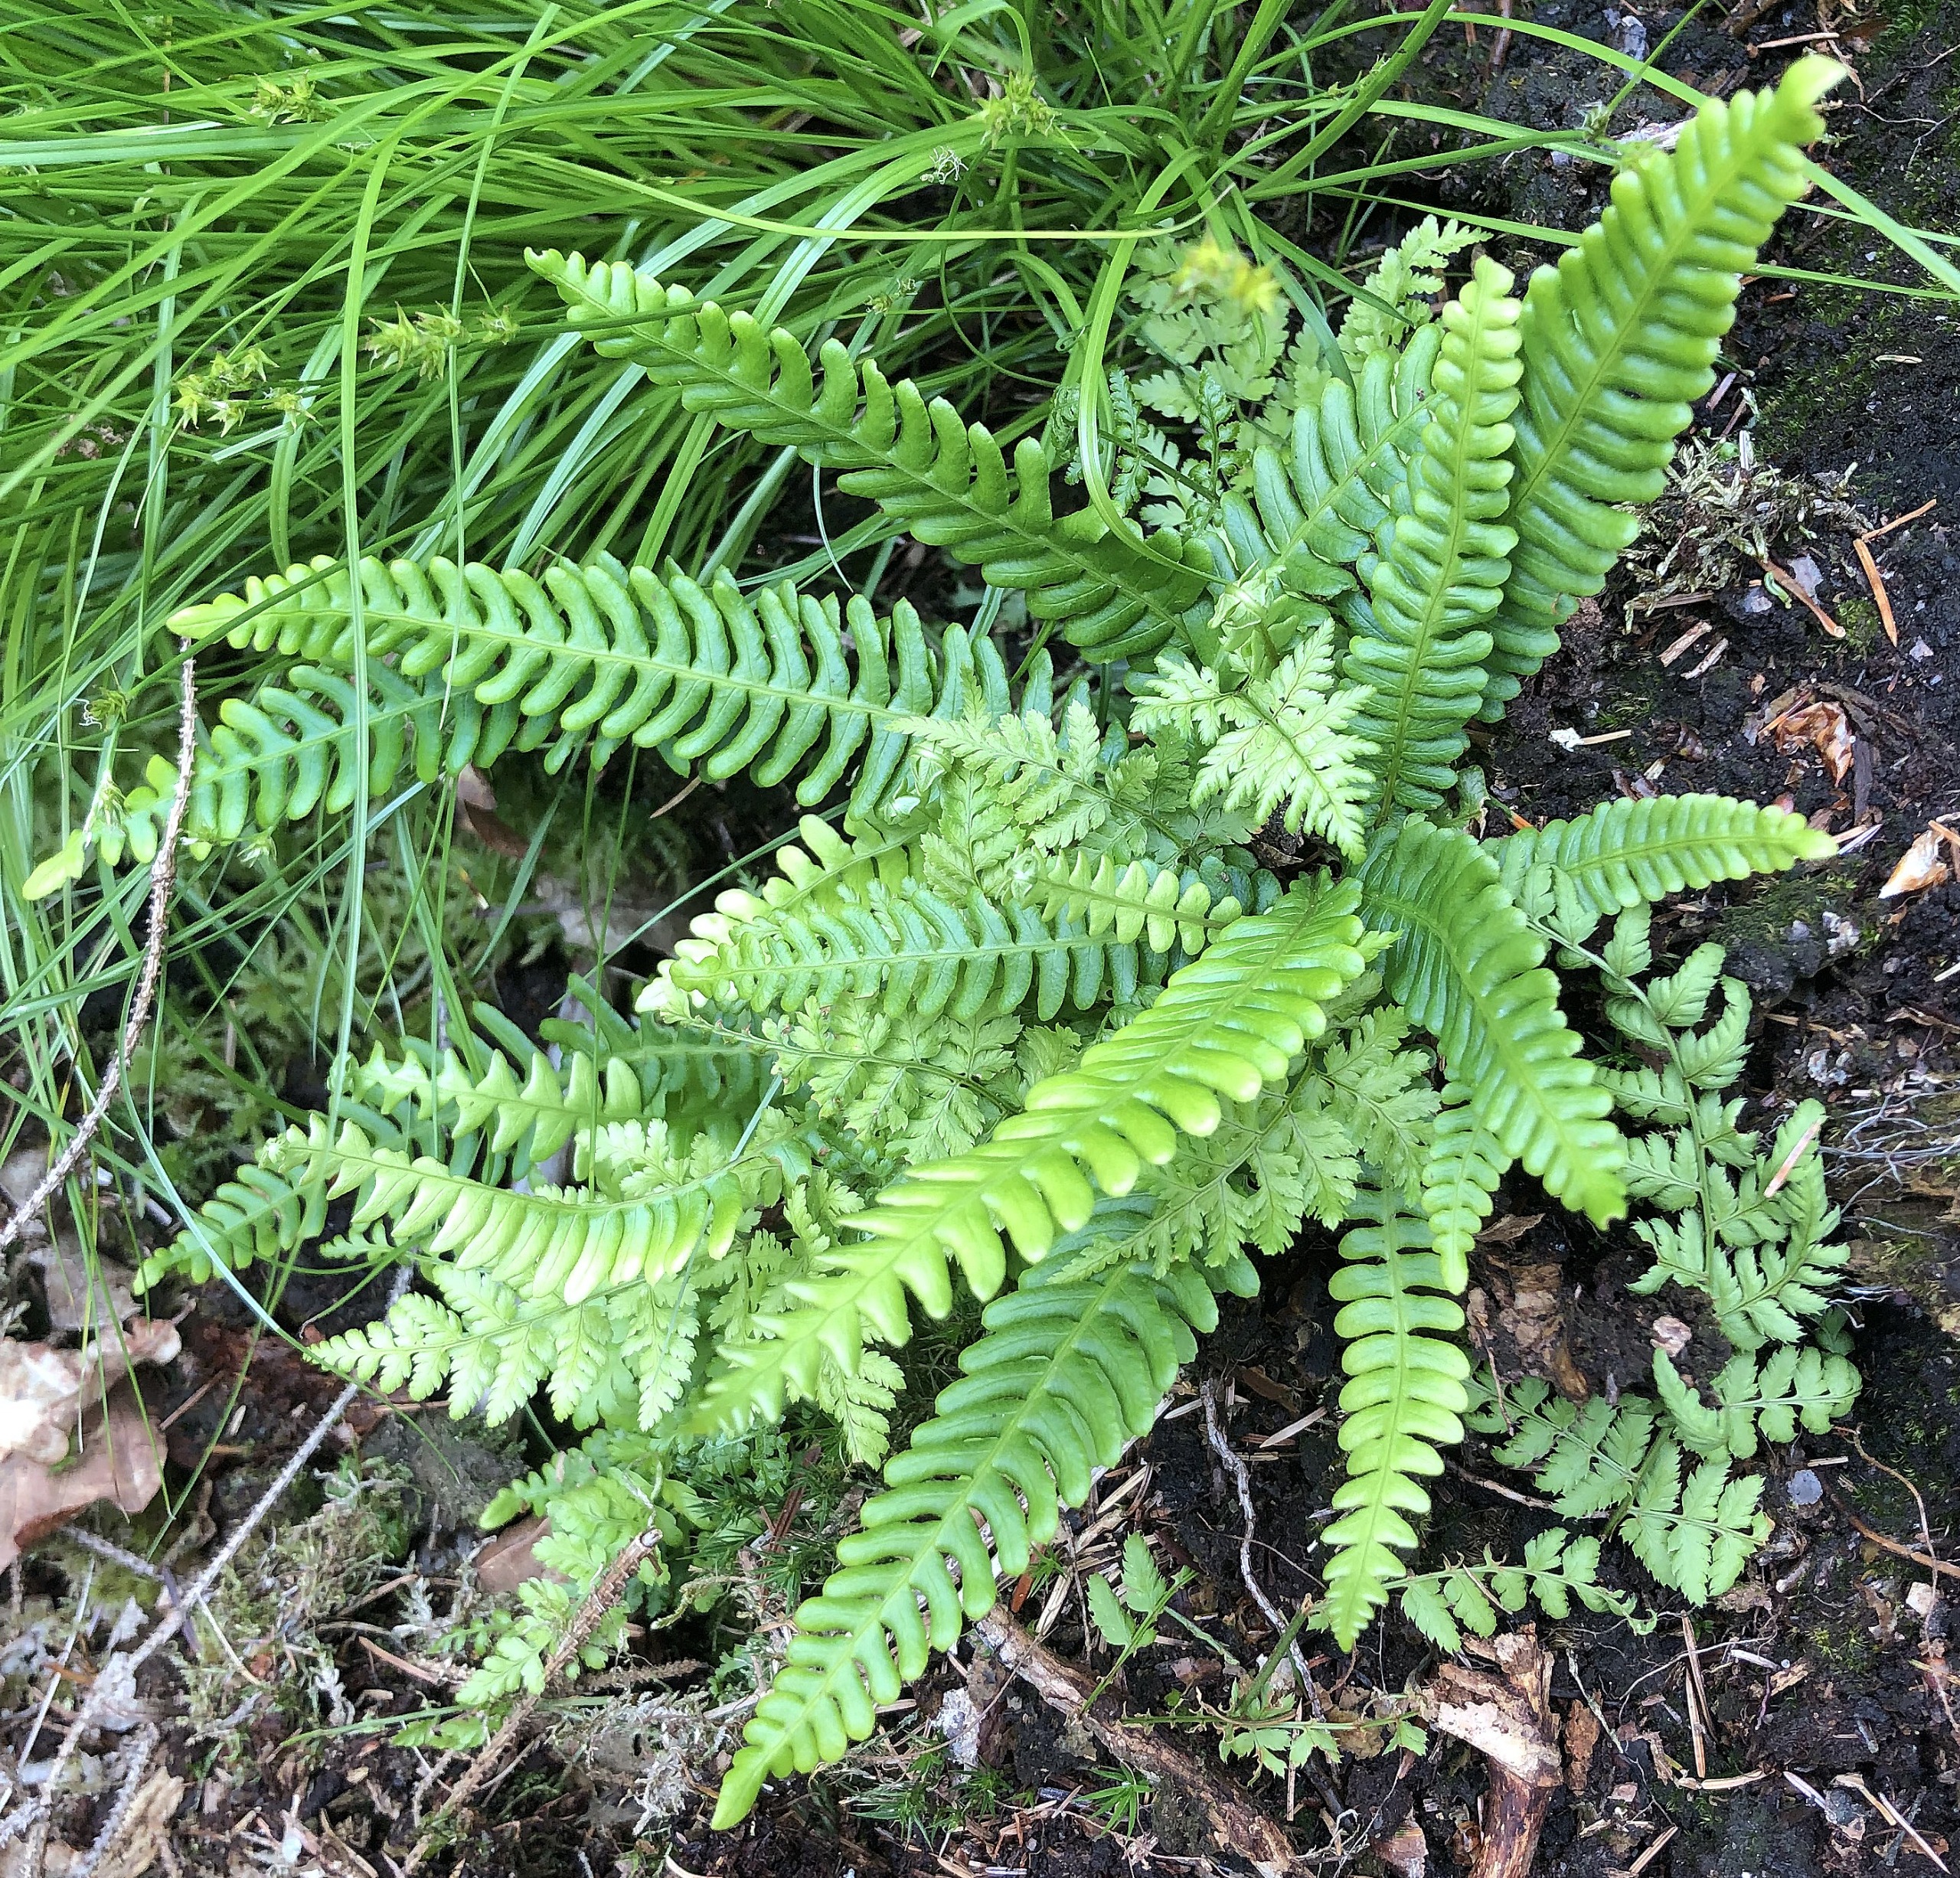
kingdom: Plantae
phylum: Tracheophyta
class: Polypodiopsida
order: Polypodiales
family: Blechnaceae
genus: Struthiopteris
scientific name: Struthiopteris spicant
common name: Kambregne
